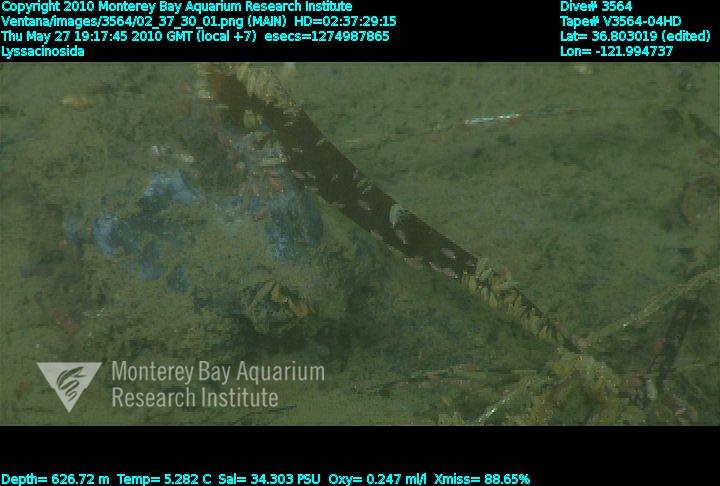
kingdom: Animalia
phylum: Porifera
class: Hexactinellida
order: Lyssacinosida
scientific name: Lyssacinosida
